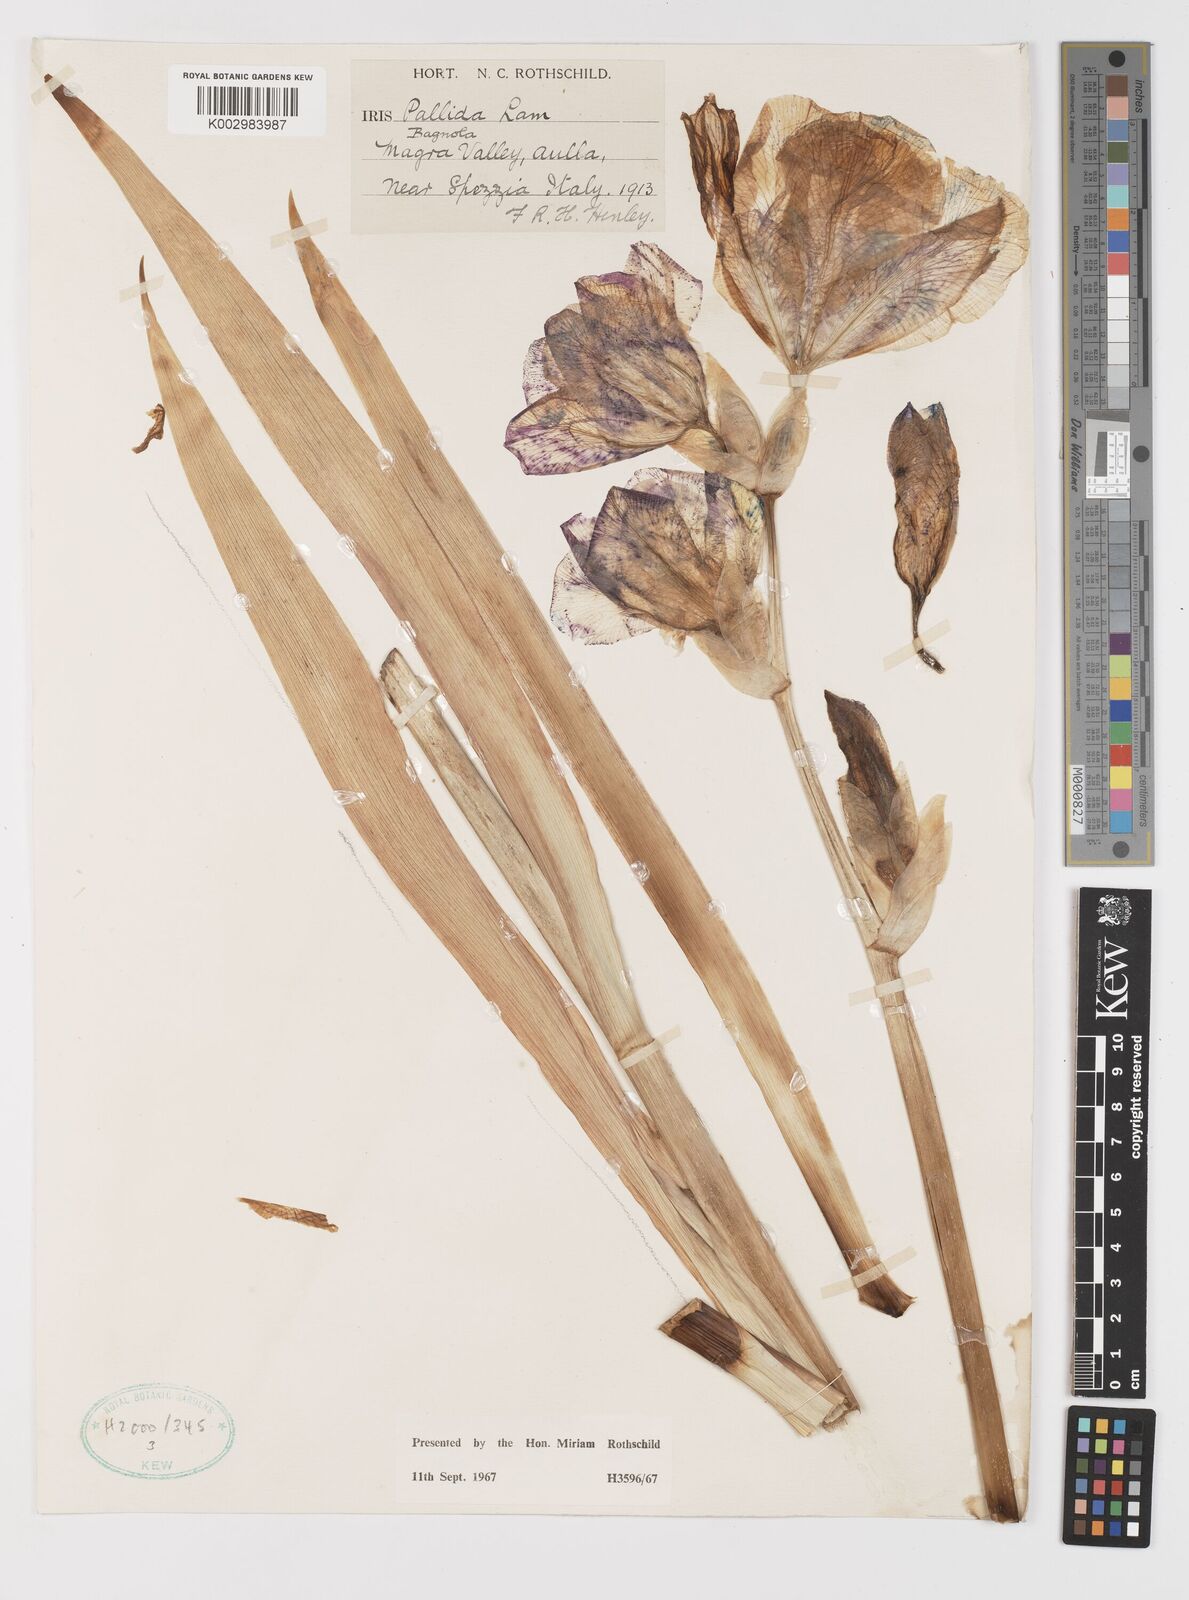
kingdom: Plantae
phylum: Tracheophyta
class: Liliopsida
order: Asparagales
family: Iridaceae
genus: Iris
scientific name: Iris halophila
